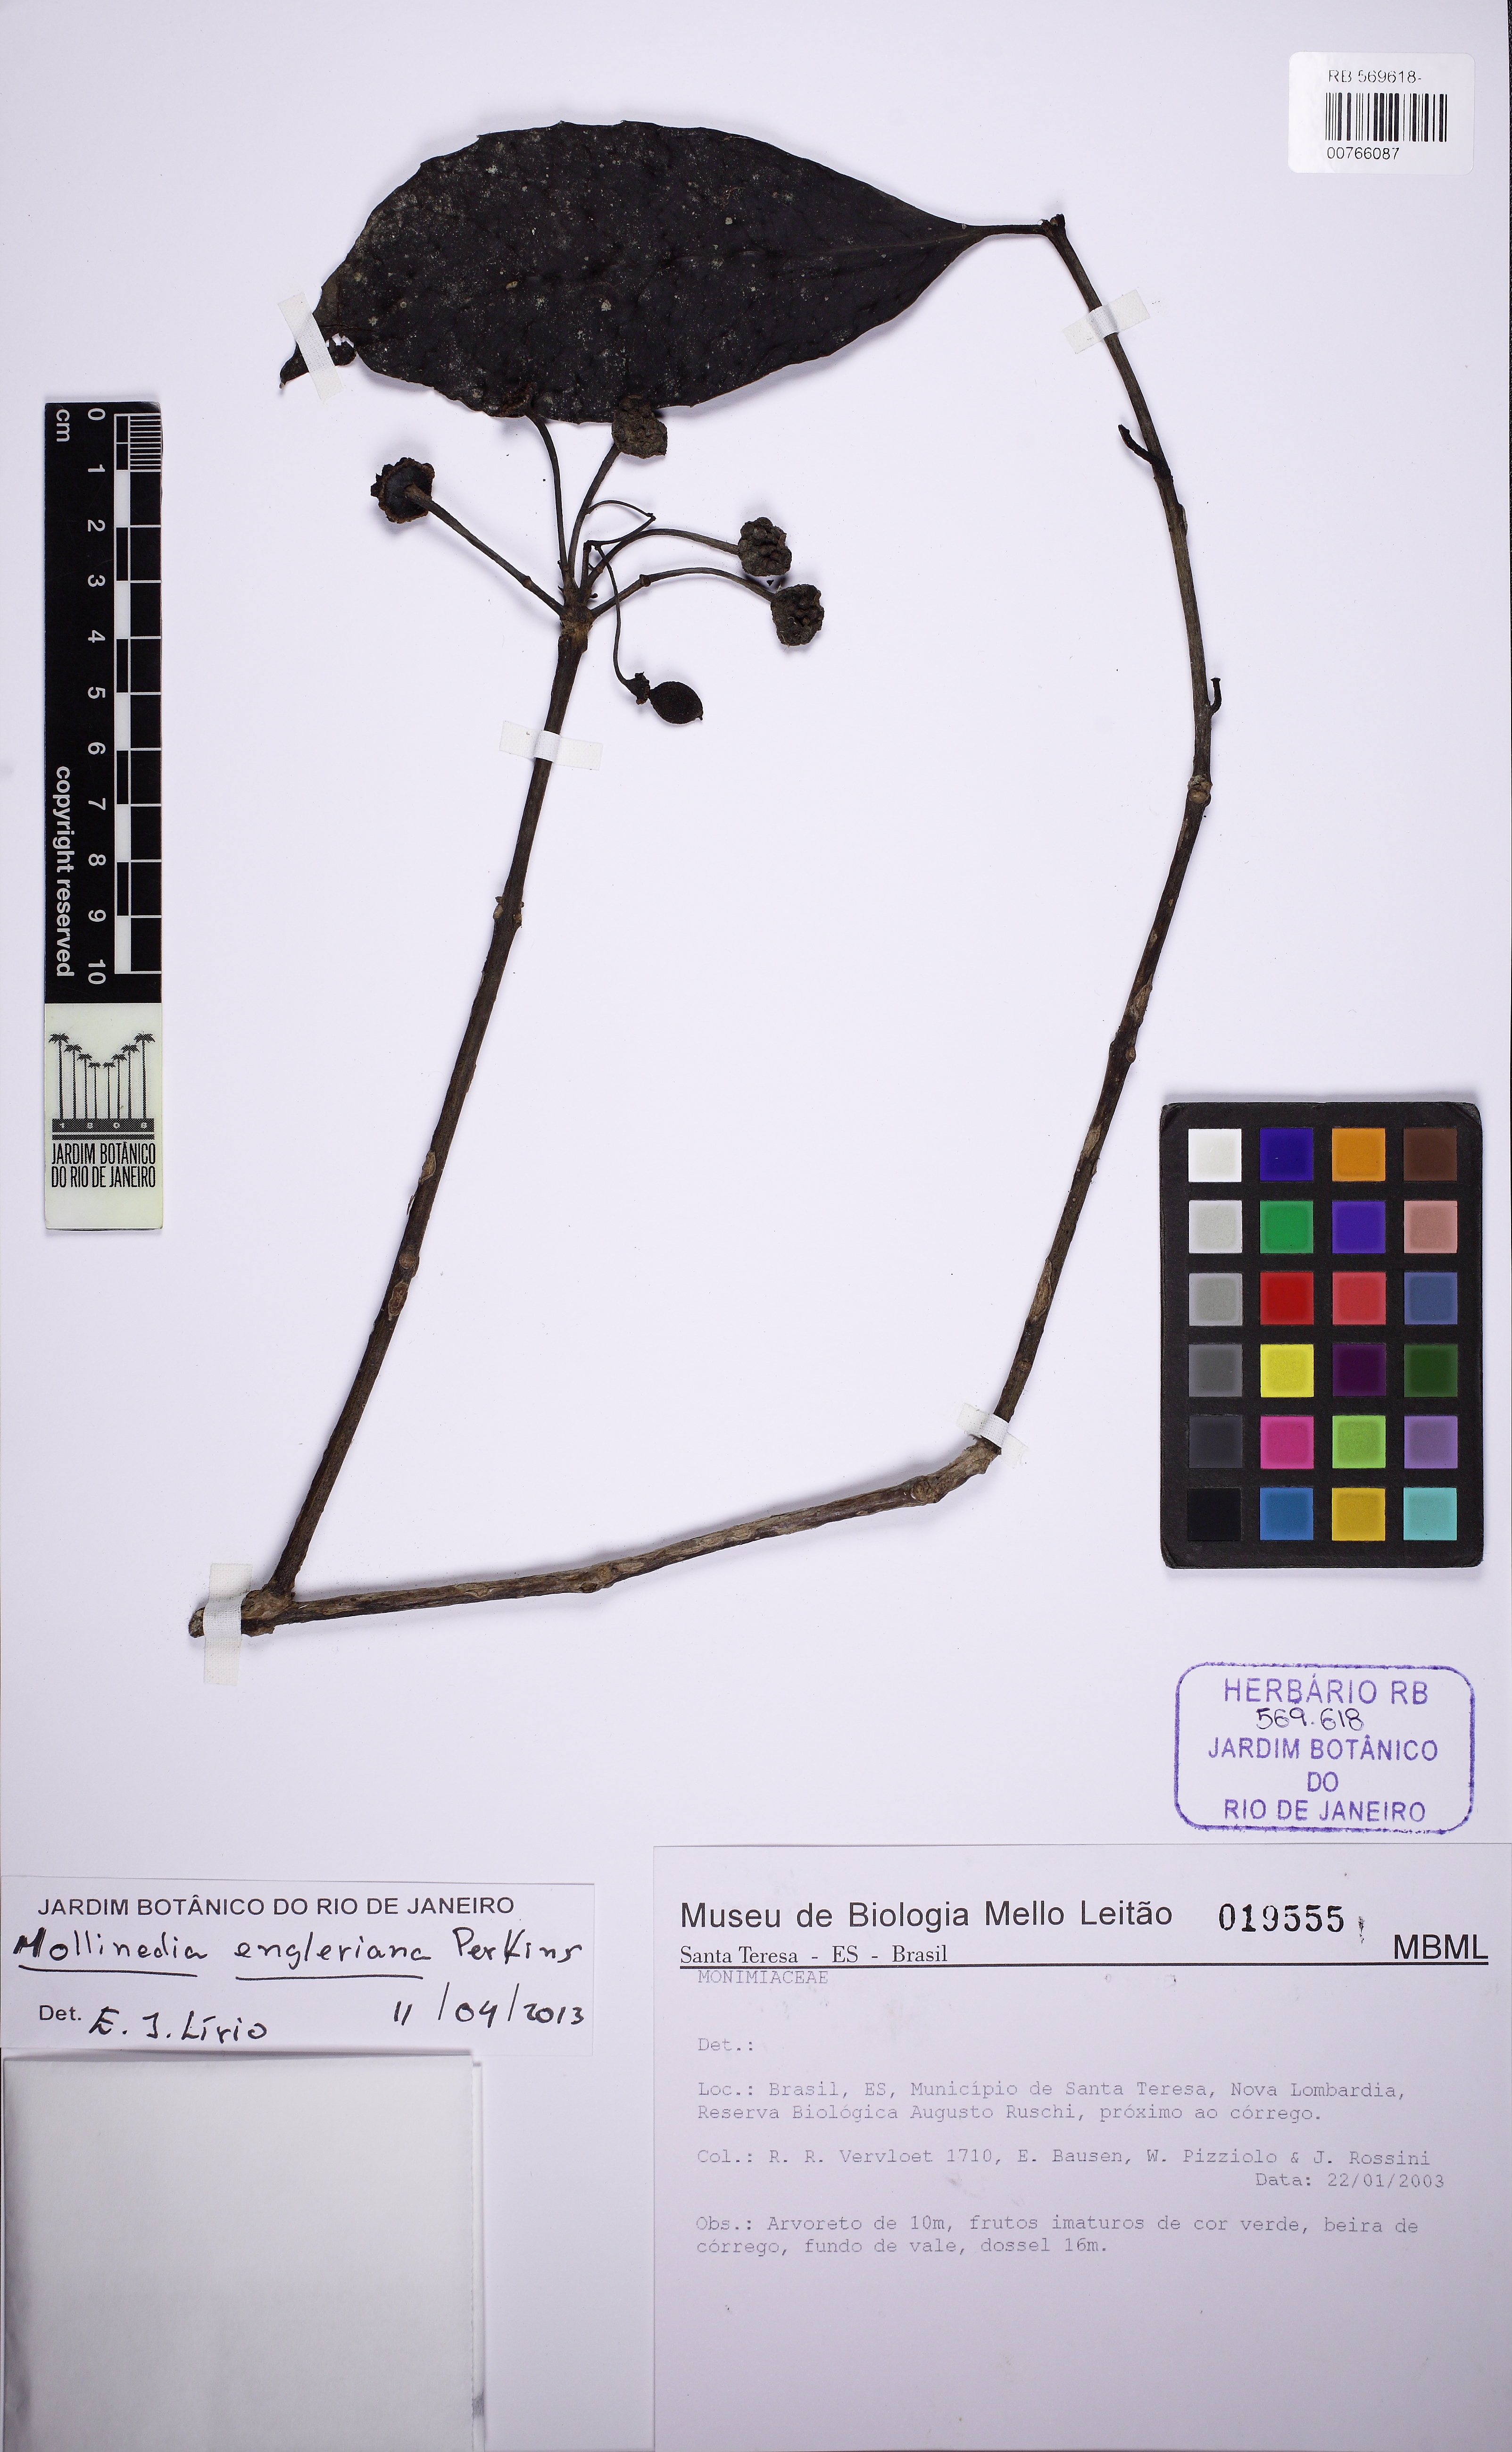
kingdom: Plantae
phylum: Tracheophyta
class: Magnoliopsida
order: Laurales
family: Monimiaceae
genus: Mollinedia
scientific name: Mollinedia engleriana
